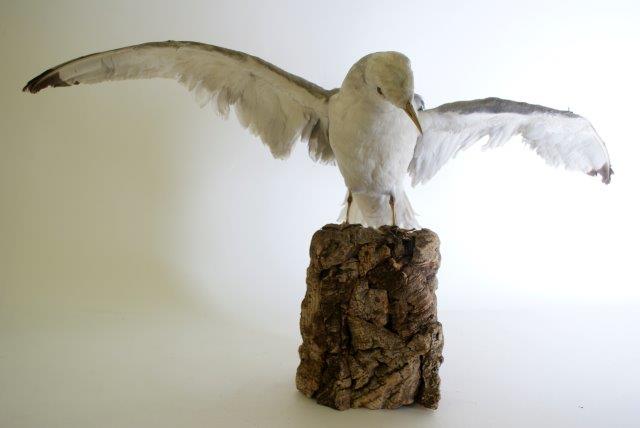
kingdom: Animalia
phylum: Chordata
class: Aves
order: Charadriiformes
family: Laridae
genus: Rissa
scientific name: Rissa tridactyla
